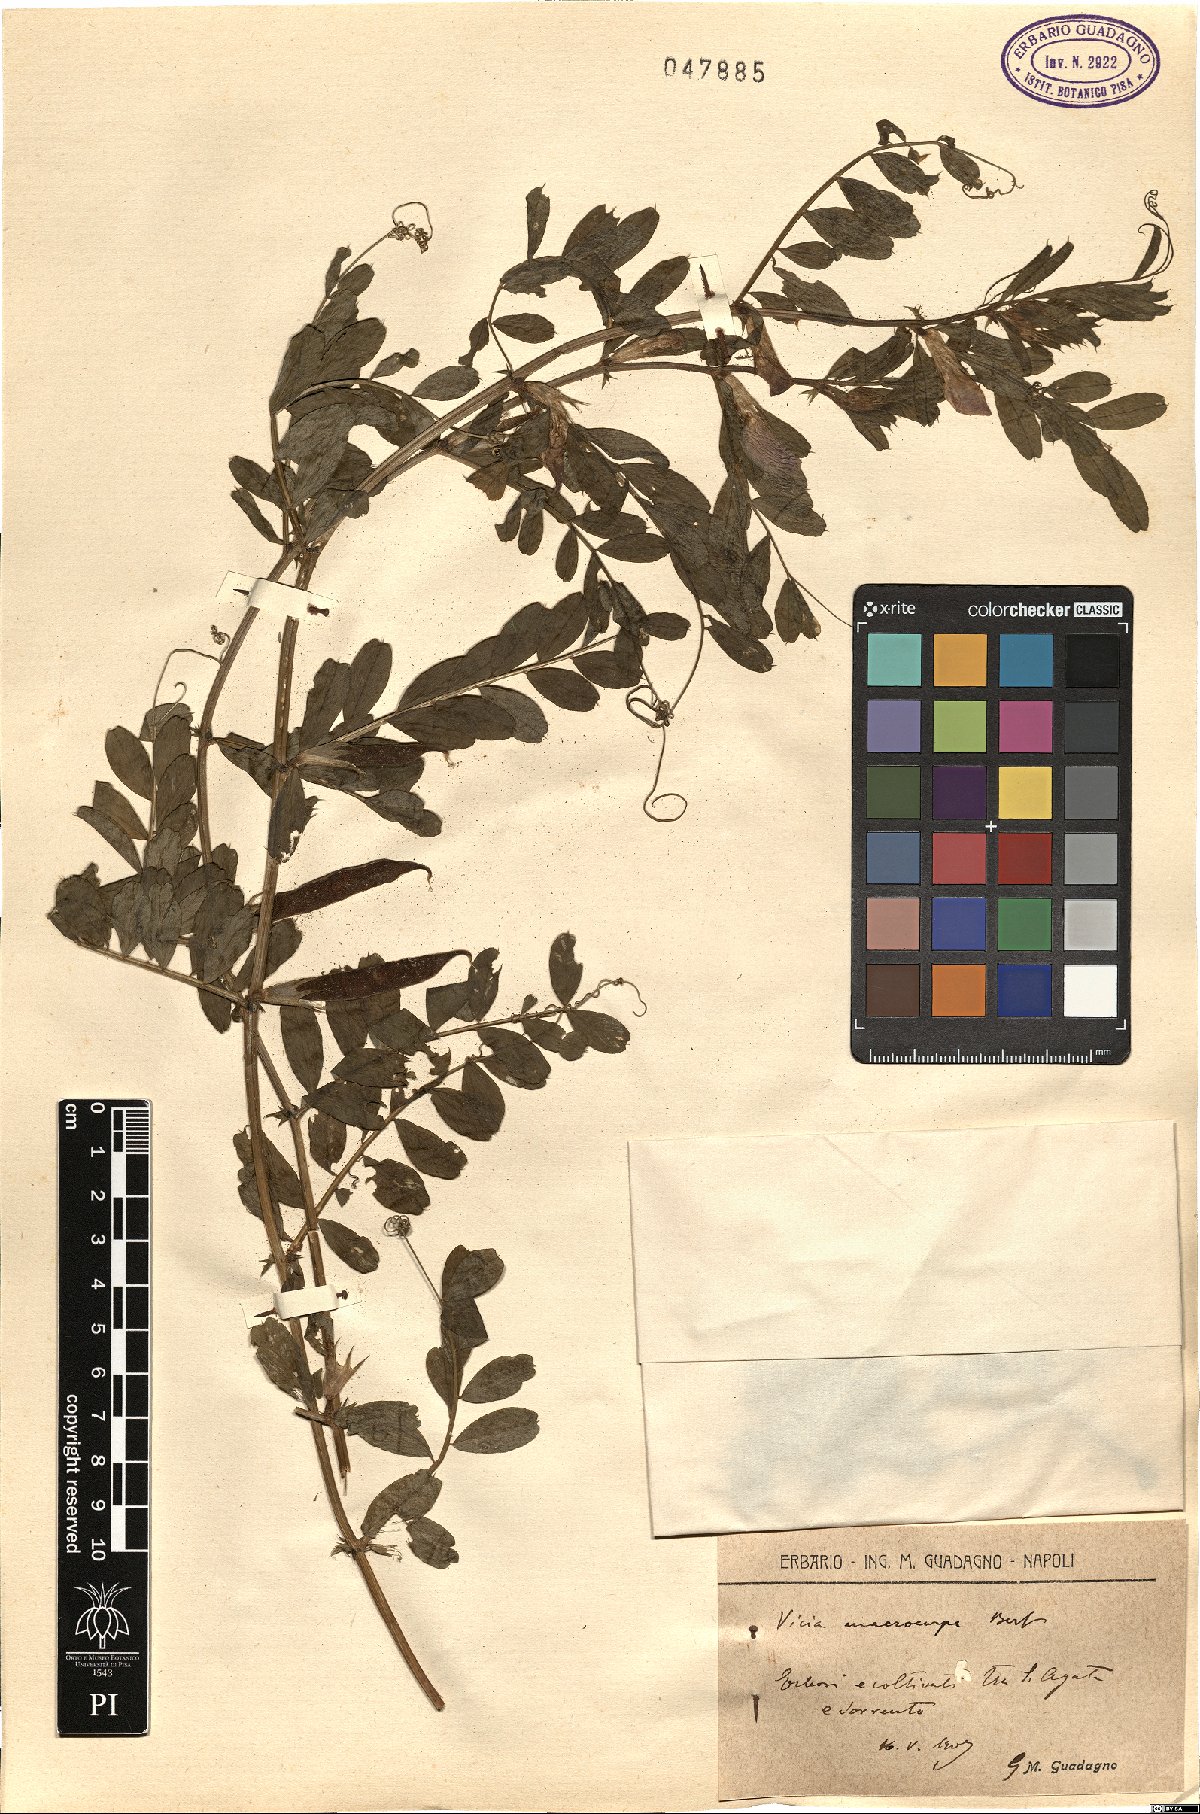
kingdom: Plantae
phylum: Tracheophyta
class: Magnoliopsida
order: Fabales
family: Fabaceae
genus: Vicia
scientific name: Vicia sativa
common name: Garden vetch
